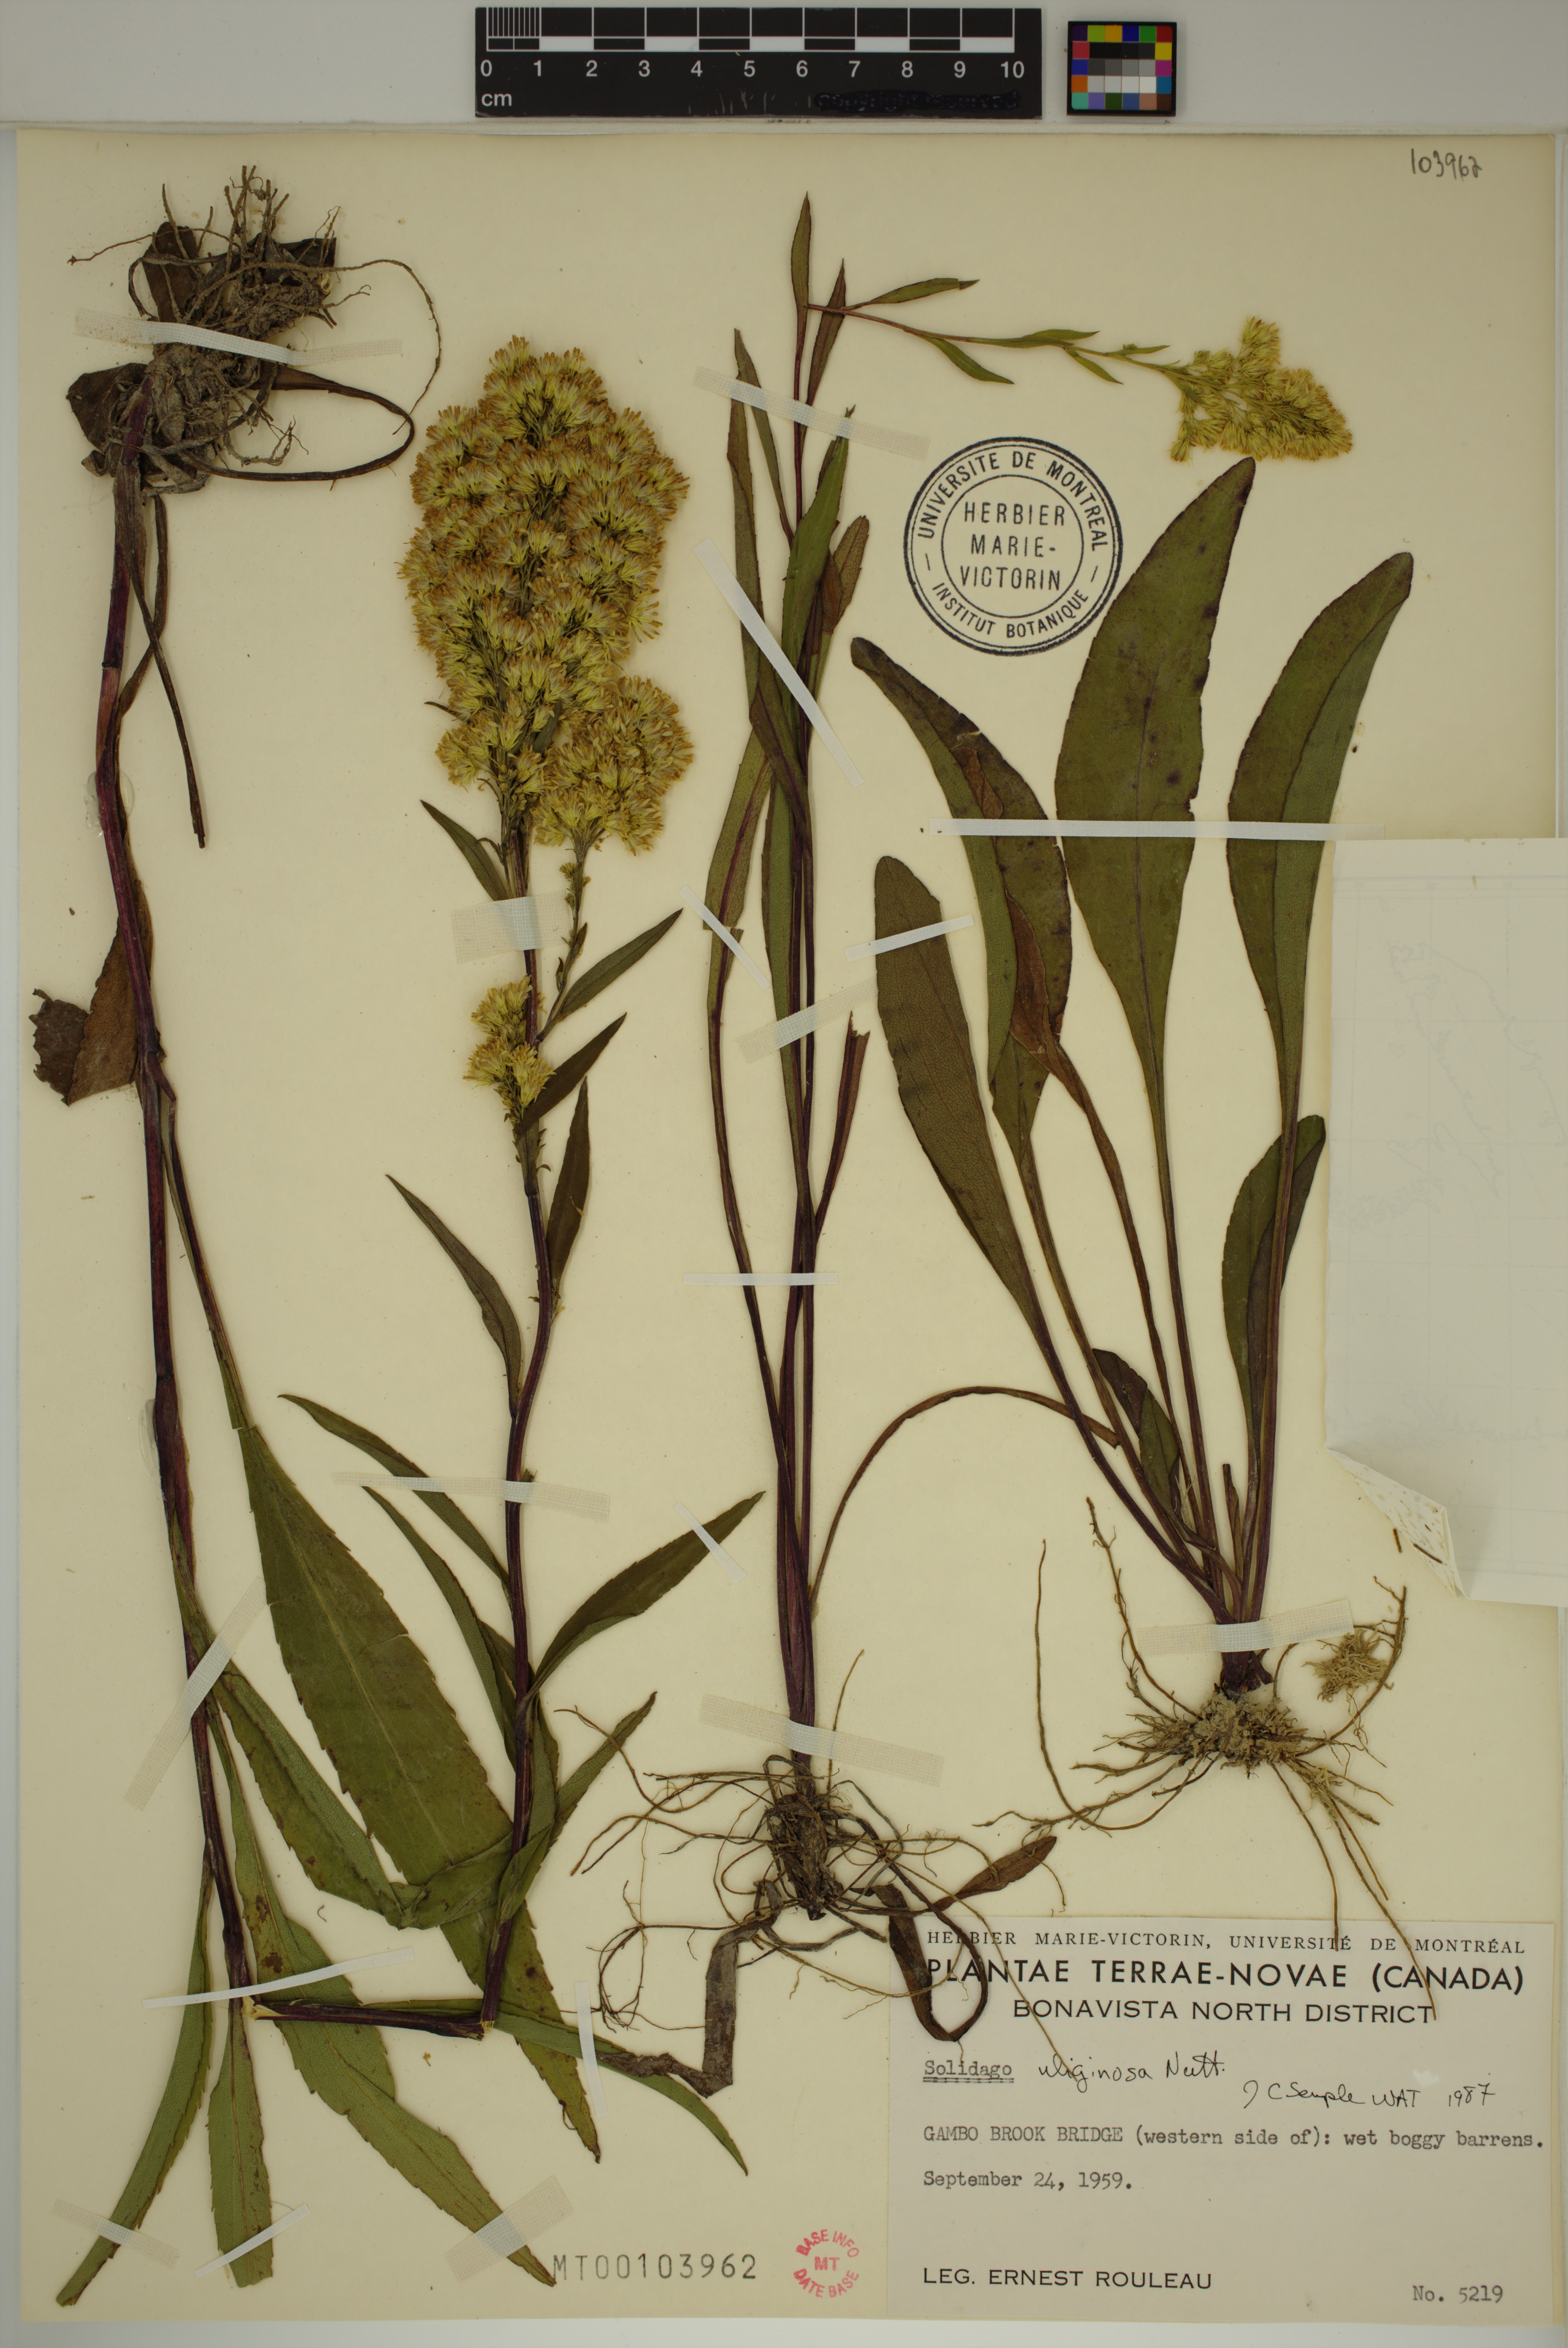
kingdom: Plantae
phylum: Tracheophyta
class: Magnoliopsida
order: Asterales
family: Asteraceae
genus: Solidago
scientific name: Solidago uliginosa
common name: Bog goldenrod
